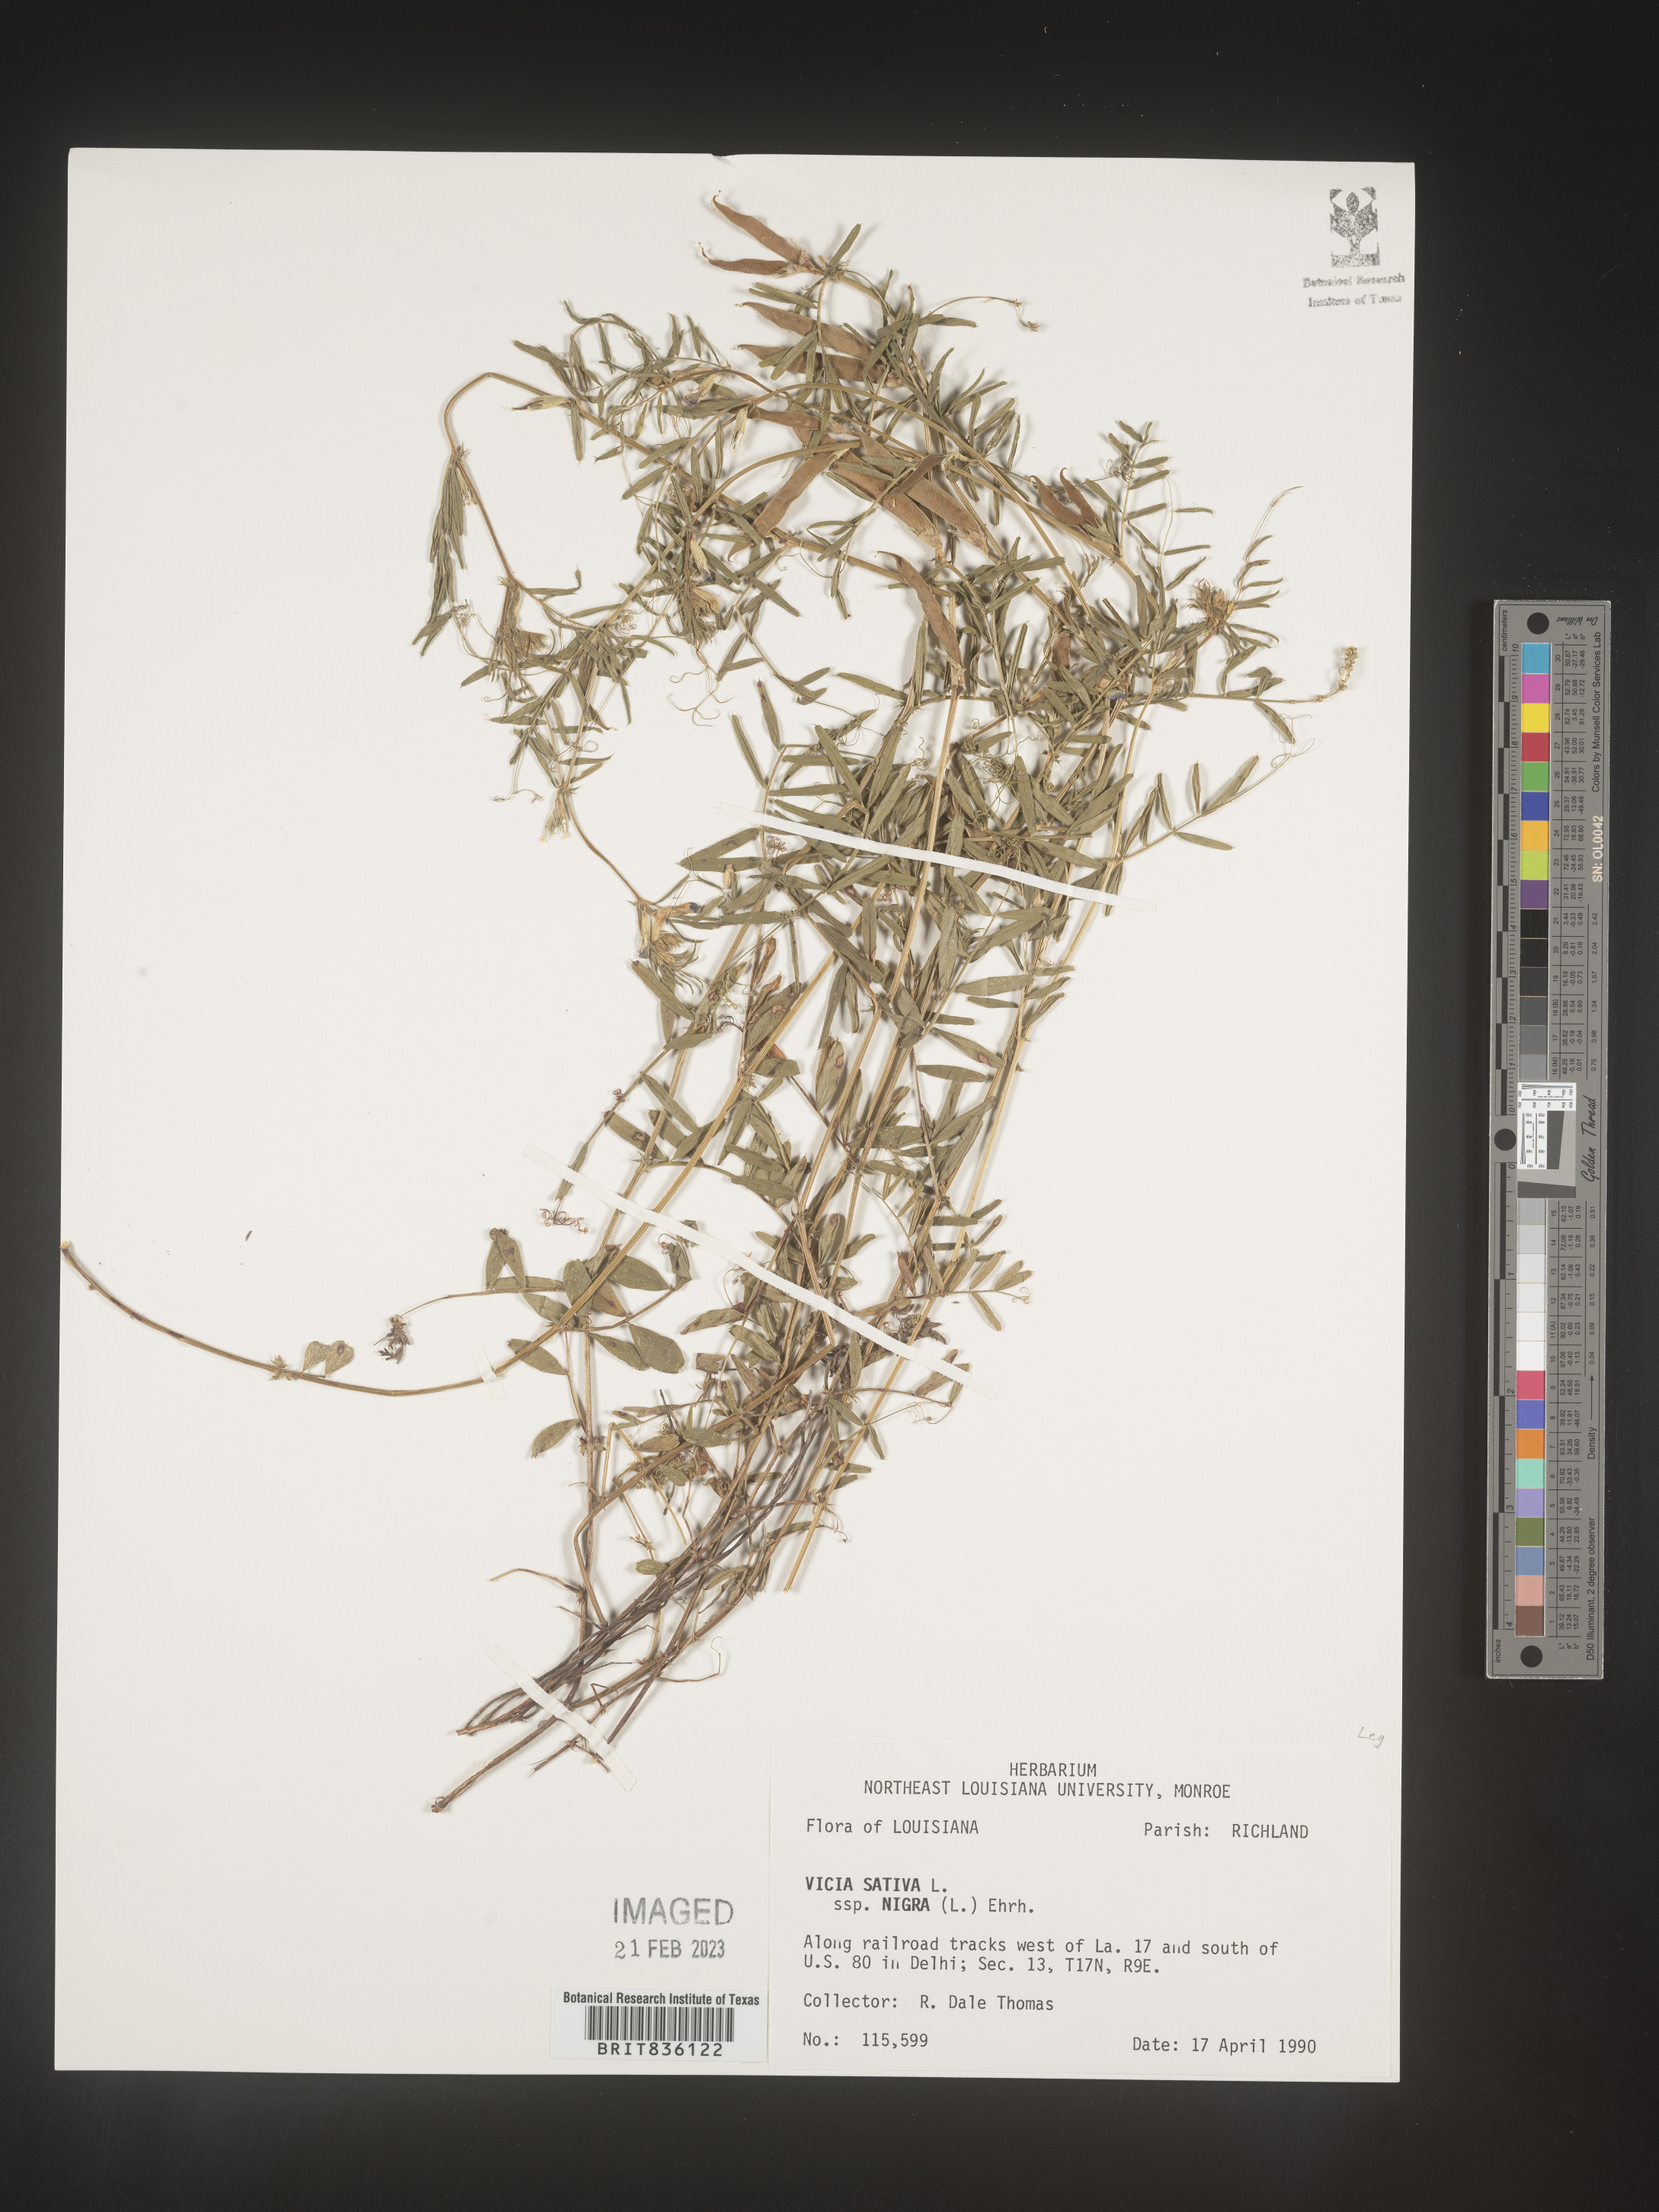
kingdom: Plantae
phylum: Tracheophyta
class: Magnoliopsida
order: Fabales
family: Fabaceae
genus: Vicia
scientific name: Vicia sativa
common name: Garden vetch
